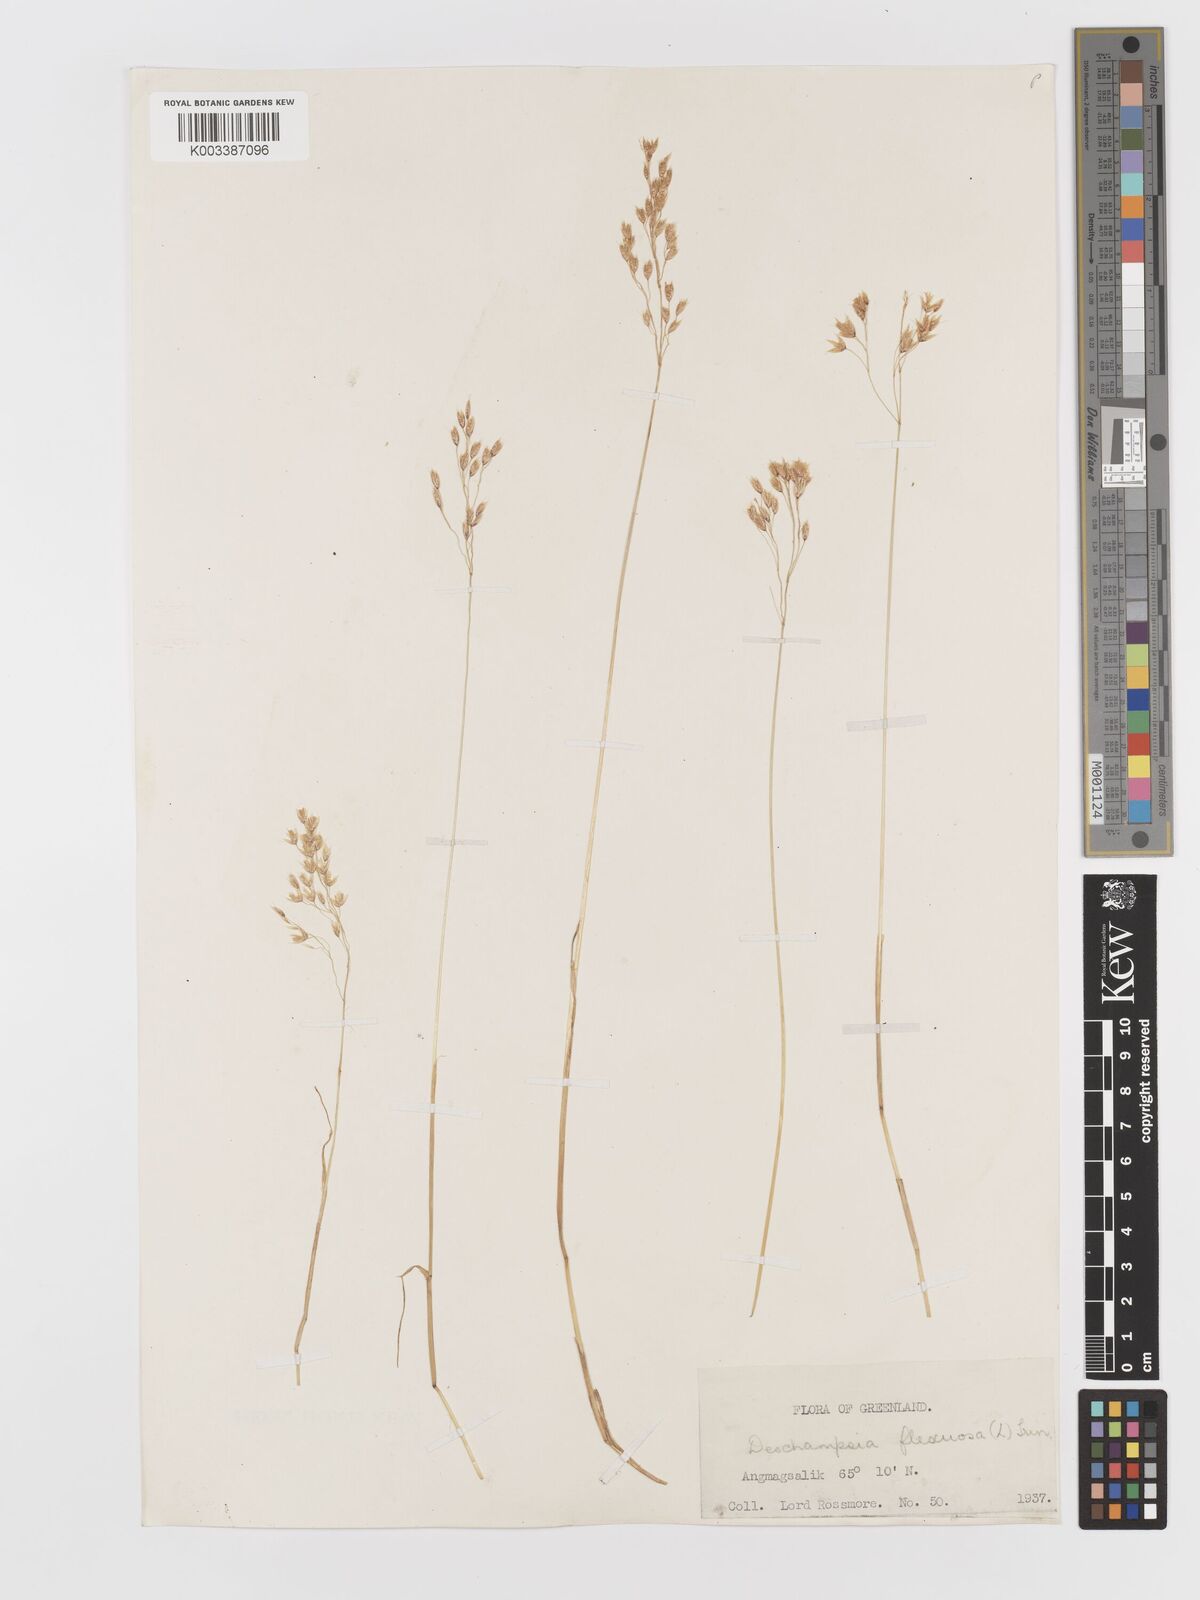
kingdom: Plantae
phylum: Tracheophyta
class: Liliopsida
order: Poales
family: Poaceae
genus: Avenella
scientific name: Avenella flexuosa
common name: Wavy hairgrass
